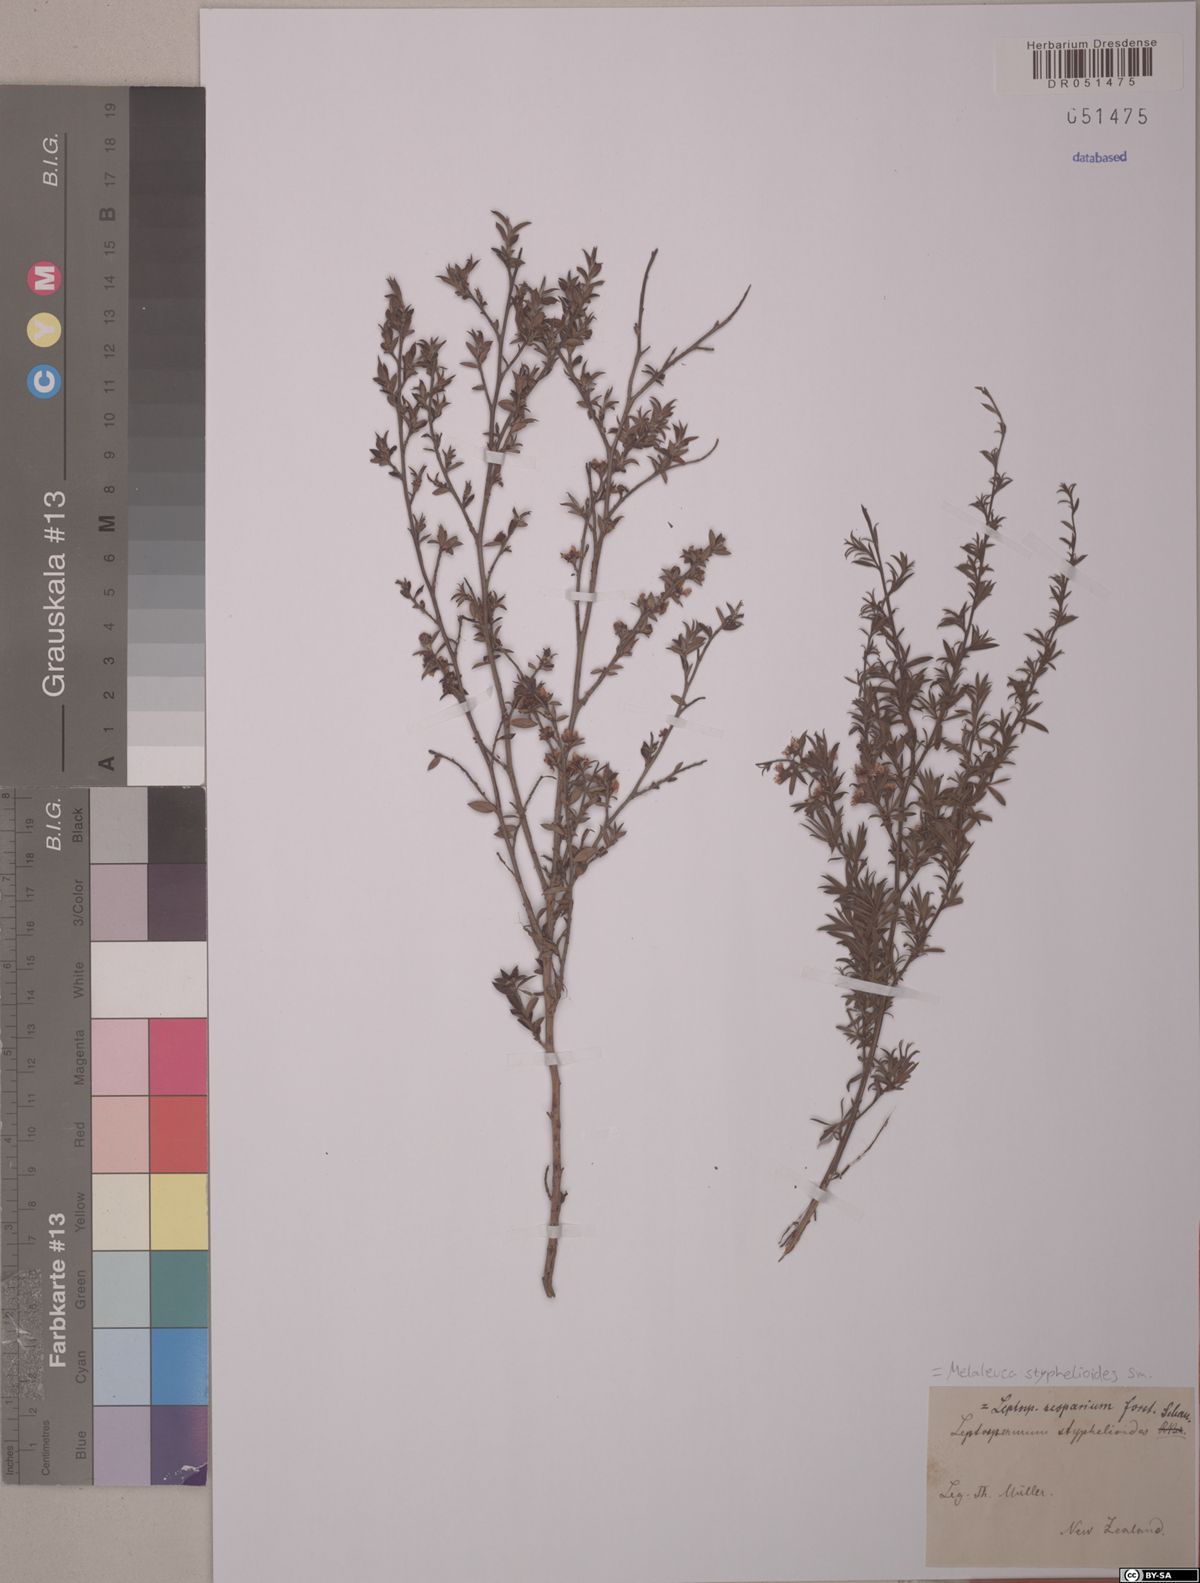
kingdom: Plantae
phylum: Tracheophyta
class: Magnoliopsida
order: Myrtales
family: Myrtaceae
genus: Melaleuca
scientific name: Melaleuca styphelioides
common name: Prickly paperbark
